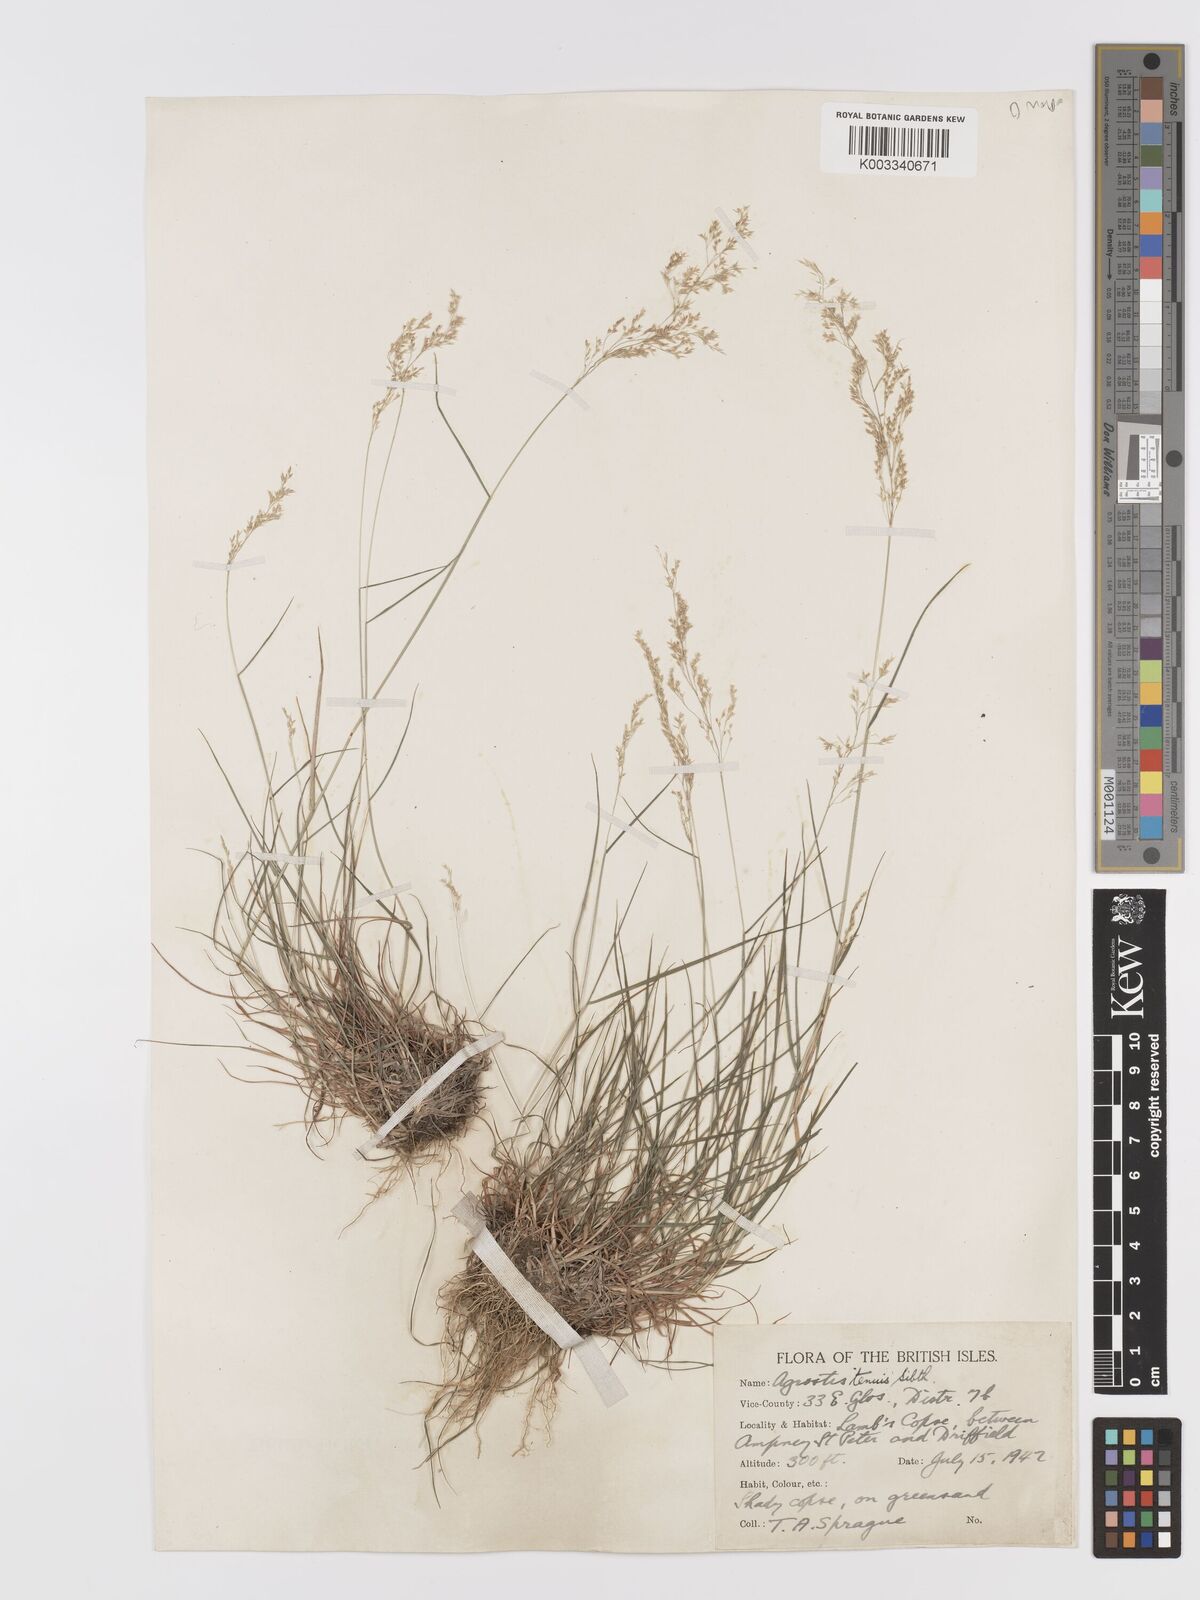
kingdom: Plantae
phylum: Tracheophyta
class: Liliopsida
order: Poales
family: Poaceae
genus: Agrostis
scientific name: Agrostis capillaris
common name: Colonial bentgrass
